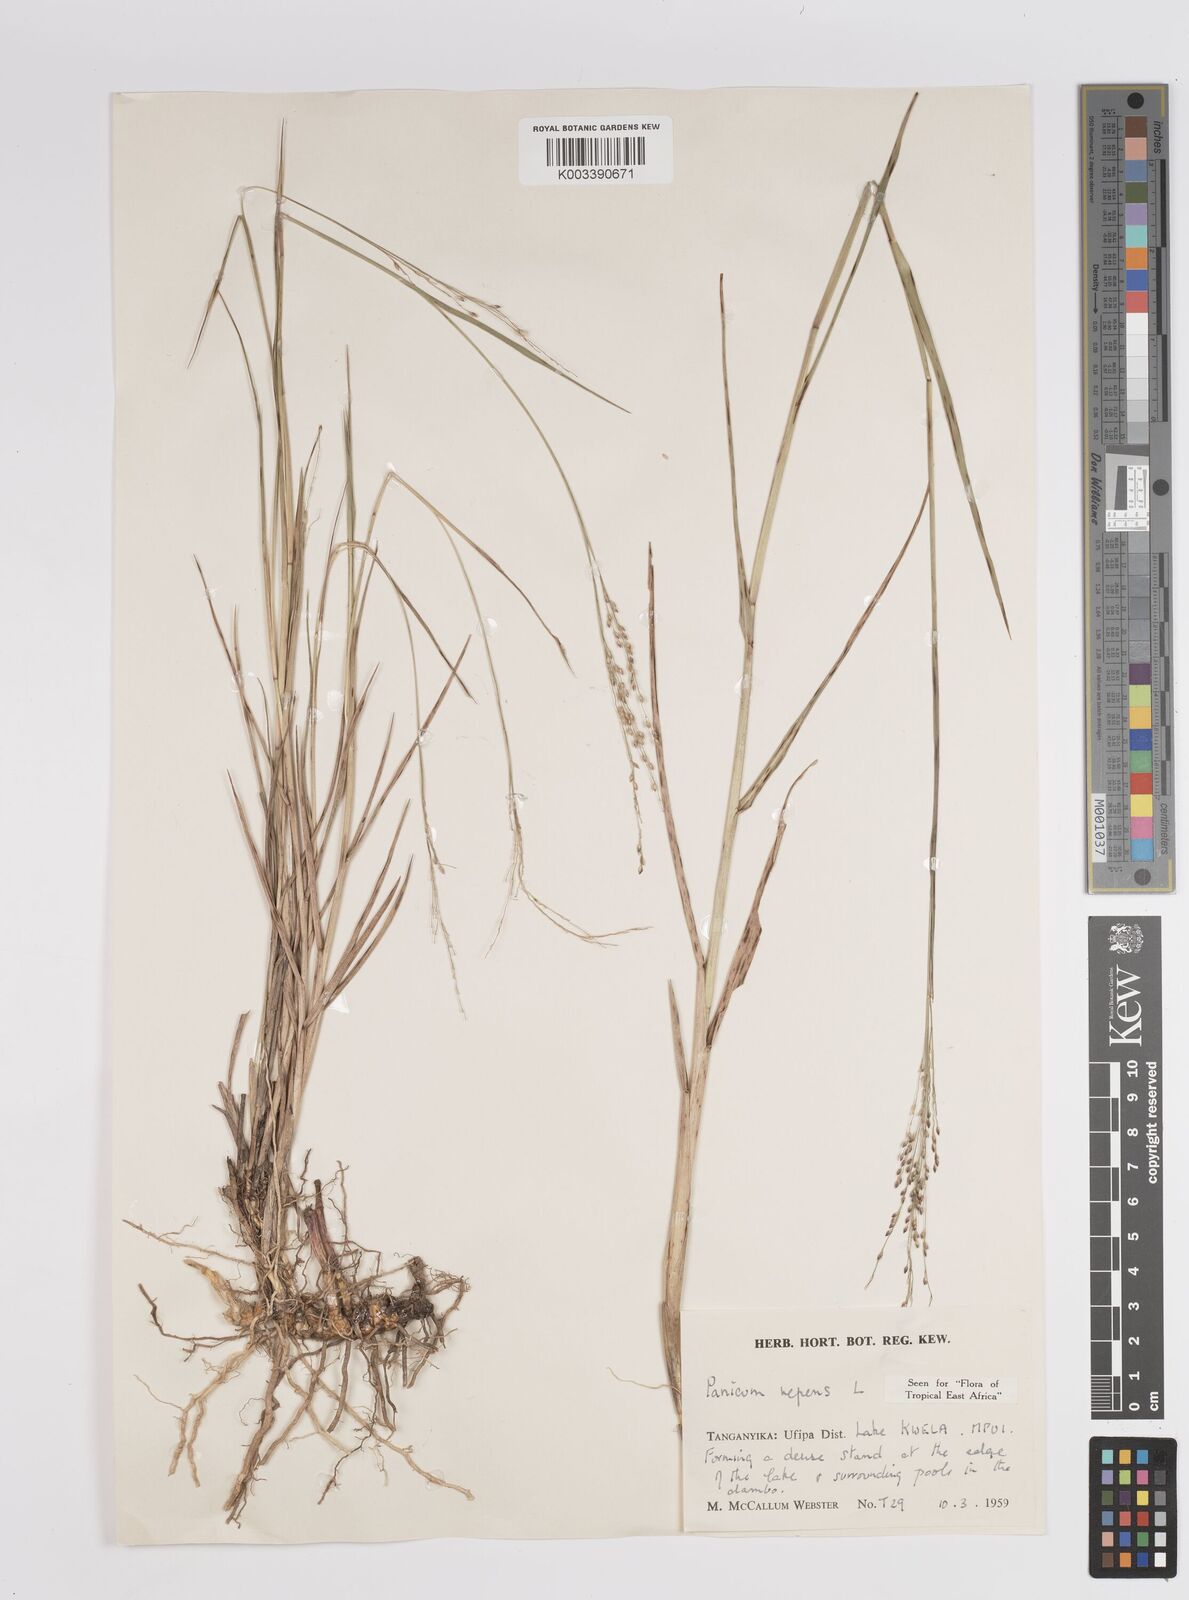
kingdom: Plantae
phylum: Tracheophyta
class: Liliopsida
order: Poales
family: Poaceae
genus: Panicum
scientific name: Panicum repens
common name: Torpedo grass
